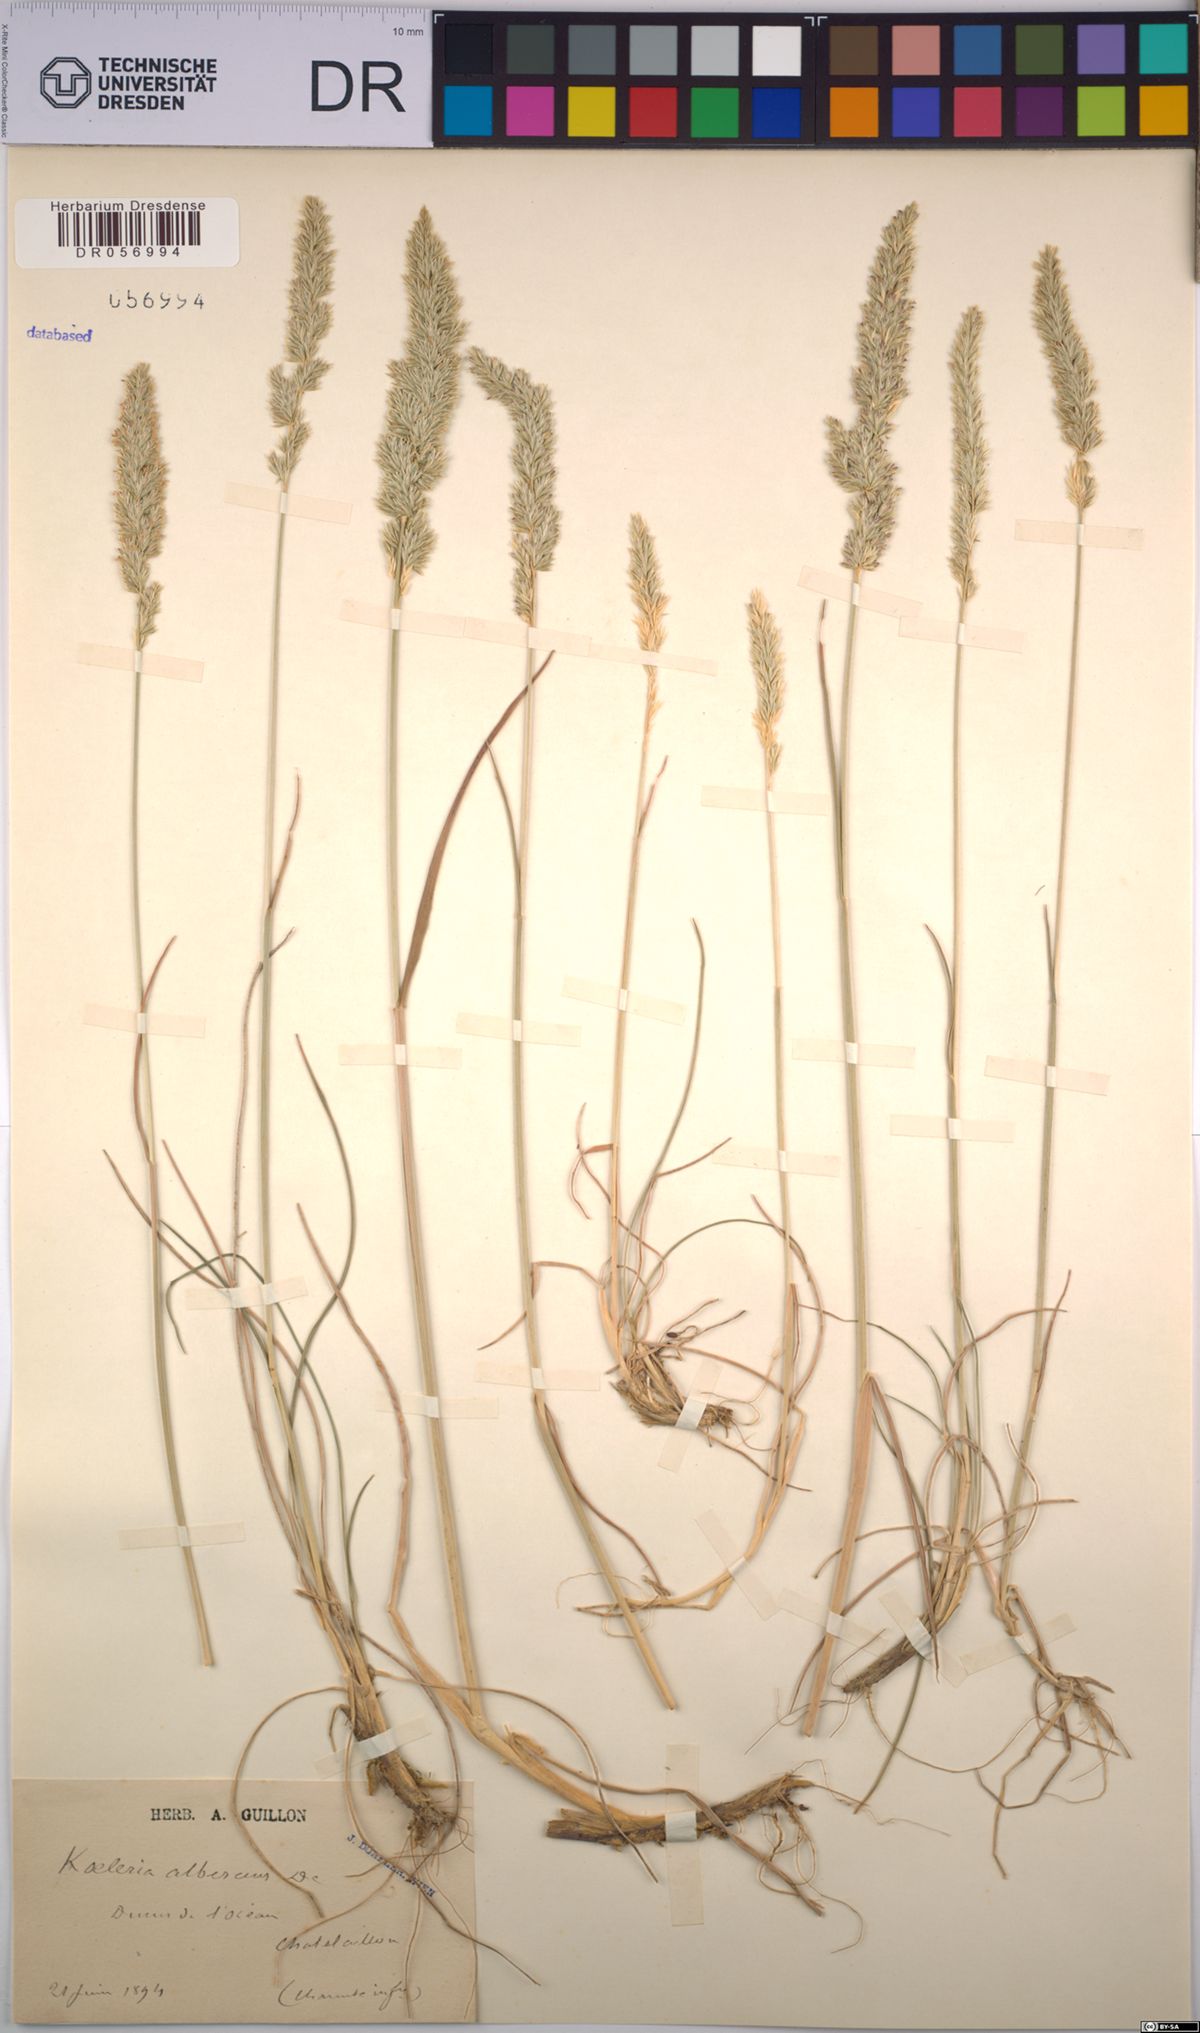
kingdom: Plantae
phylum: Tracheophyta
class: Liliopsida
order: Poales
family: Poaceae
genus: Koeleria
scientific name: Koeleria pyramidata
